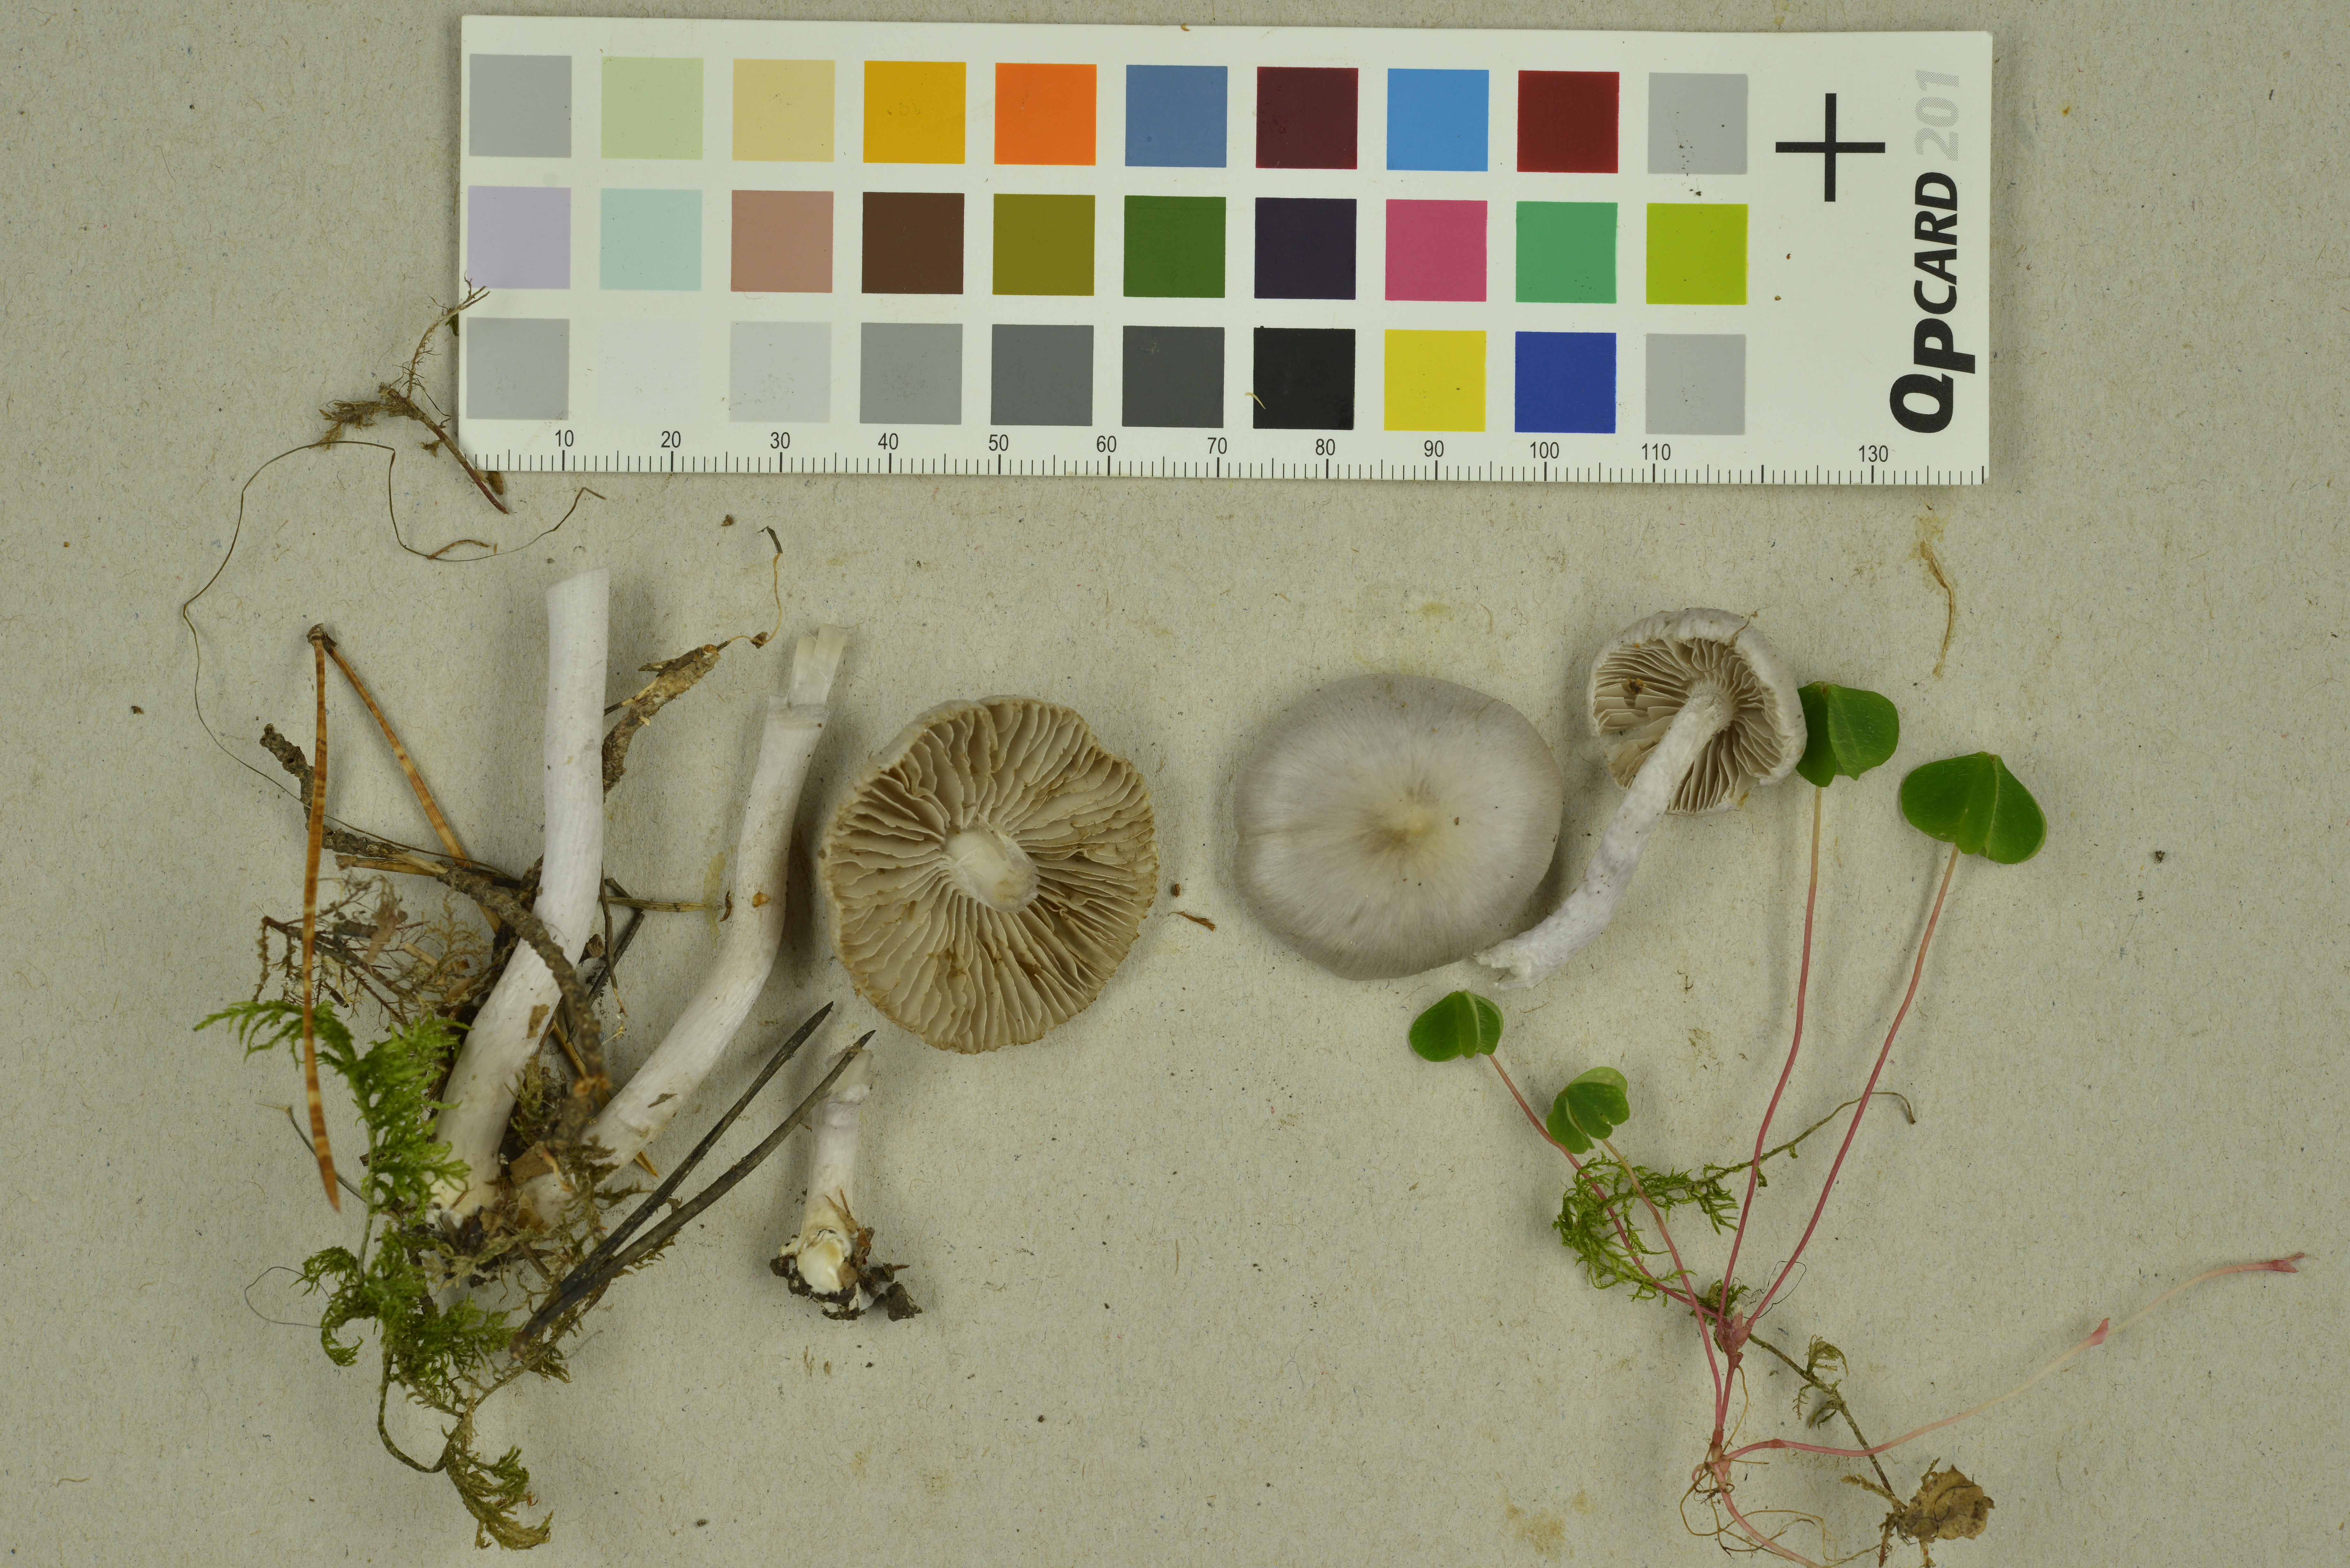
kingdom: Fungi
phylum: Basidiomycota
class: Agaricomycetes
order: Agaricales
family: Inocybaceae
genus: Inocybe
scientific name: Inocybe geophylla
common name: White fibrecap
